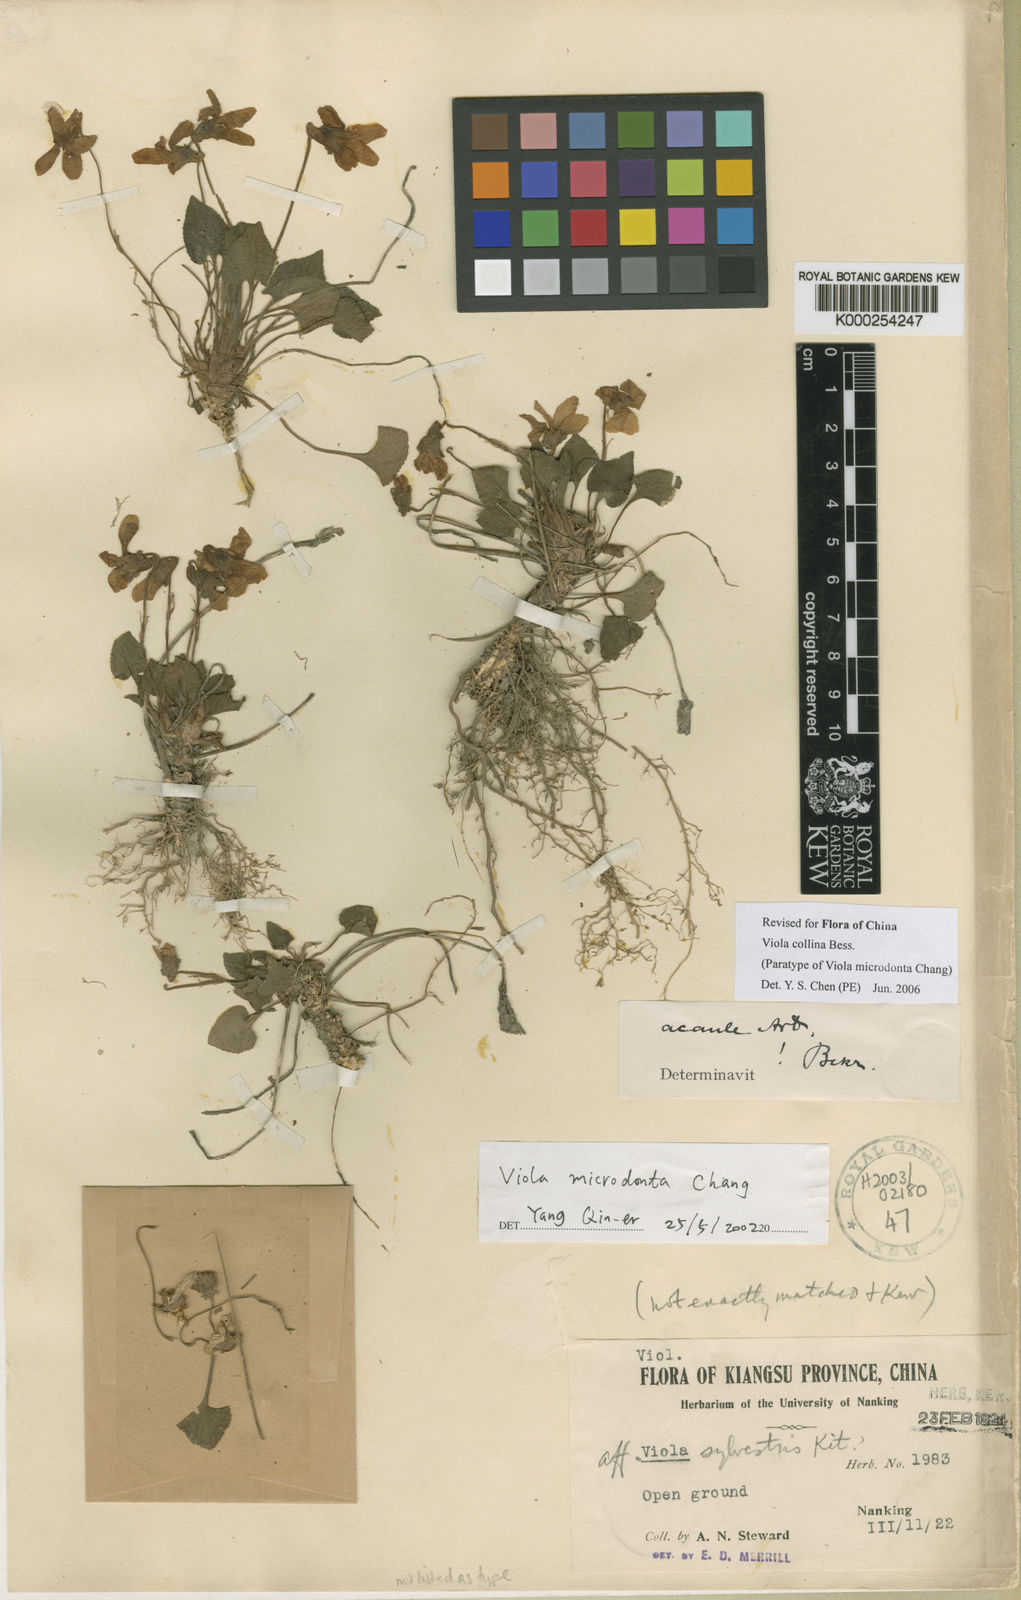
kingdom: Plantae
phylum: Tracheophyta
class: Magnoliopsida
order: Malpighiales
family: Violaceae
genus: Viola
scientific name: Viola collina
